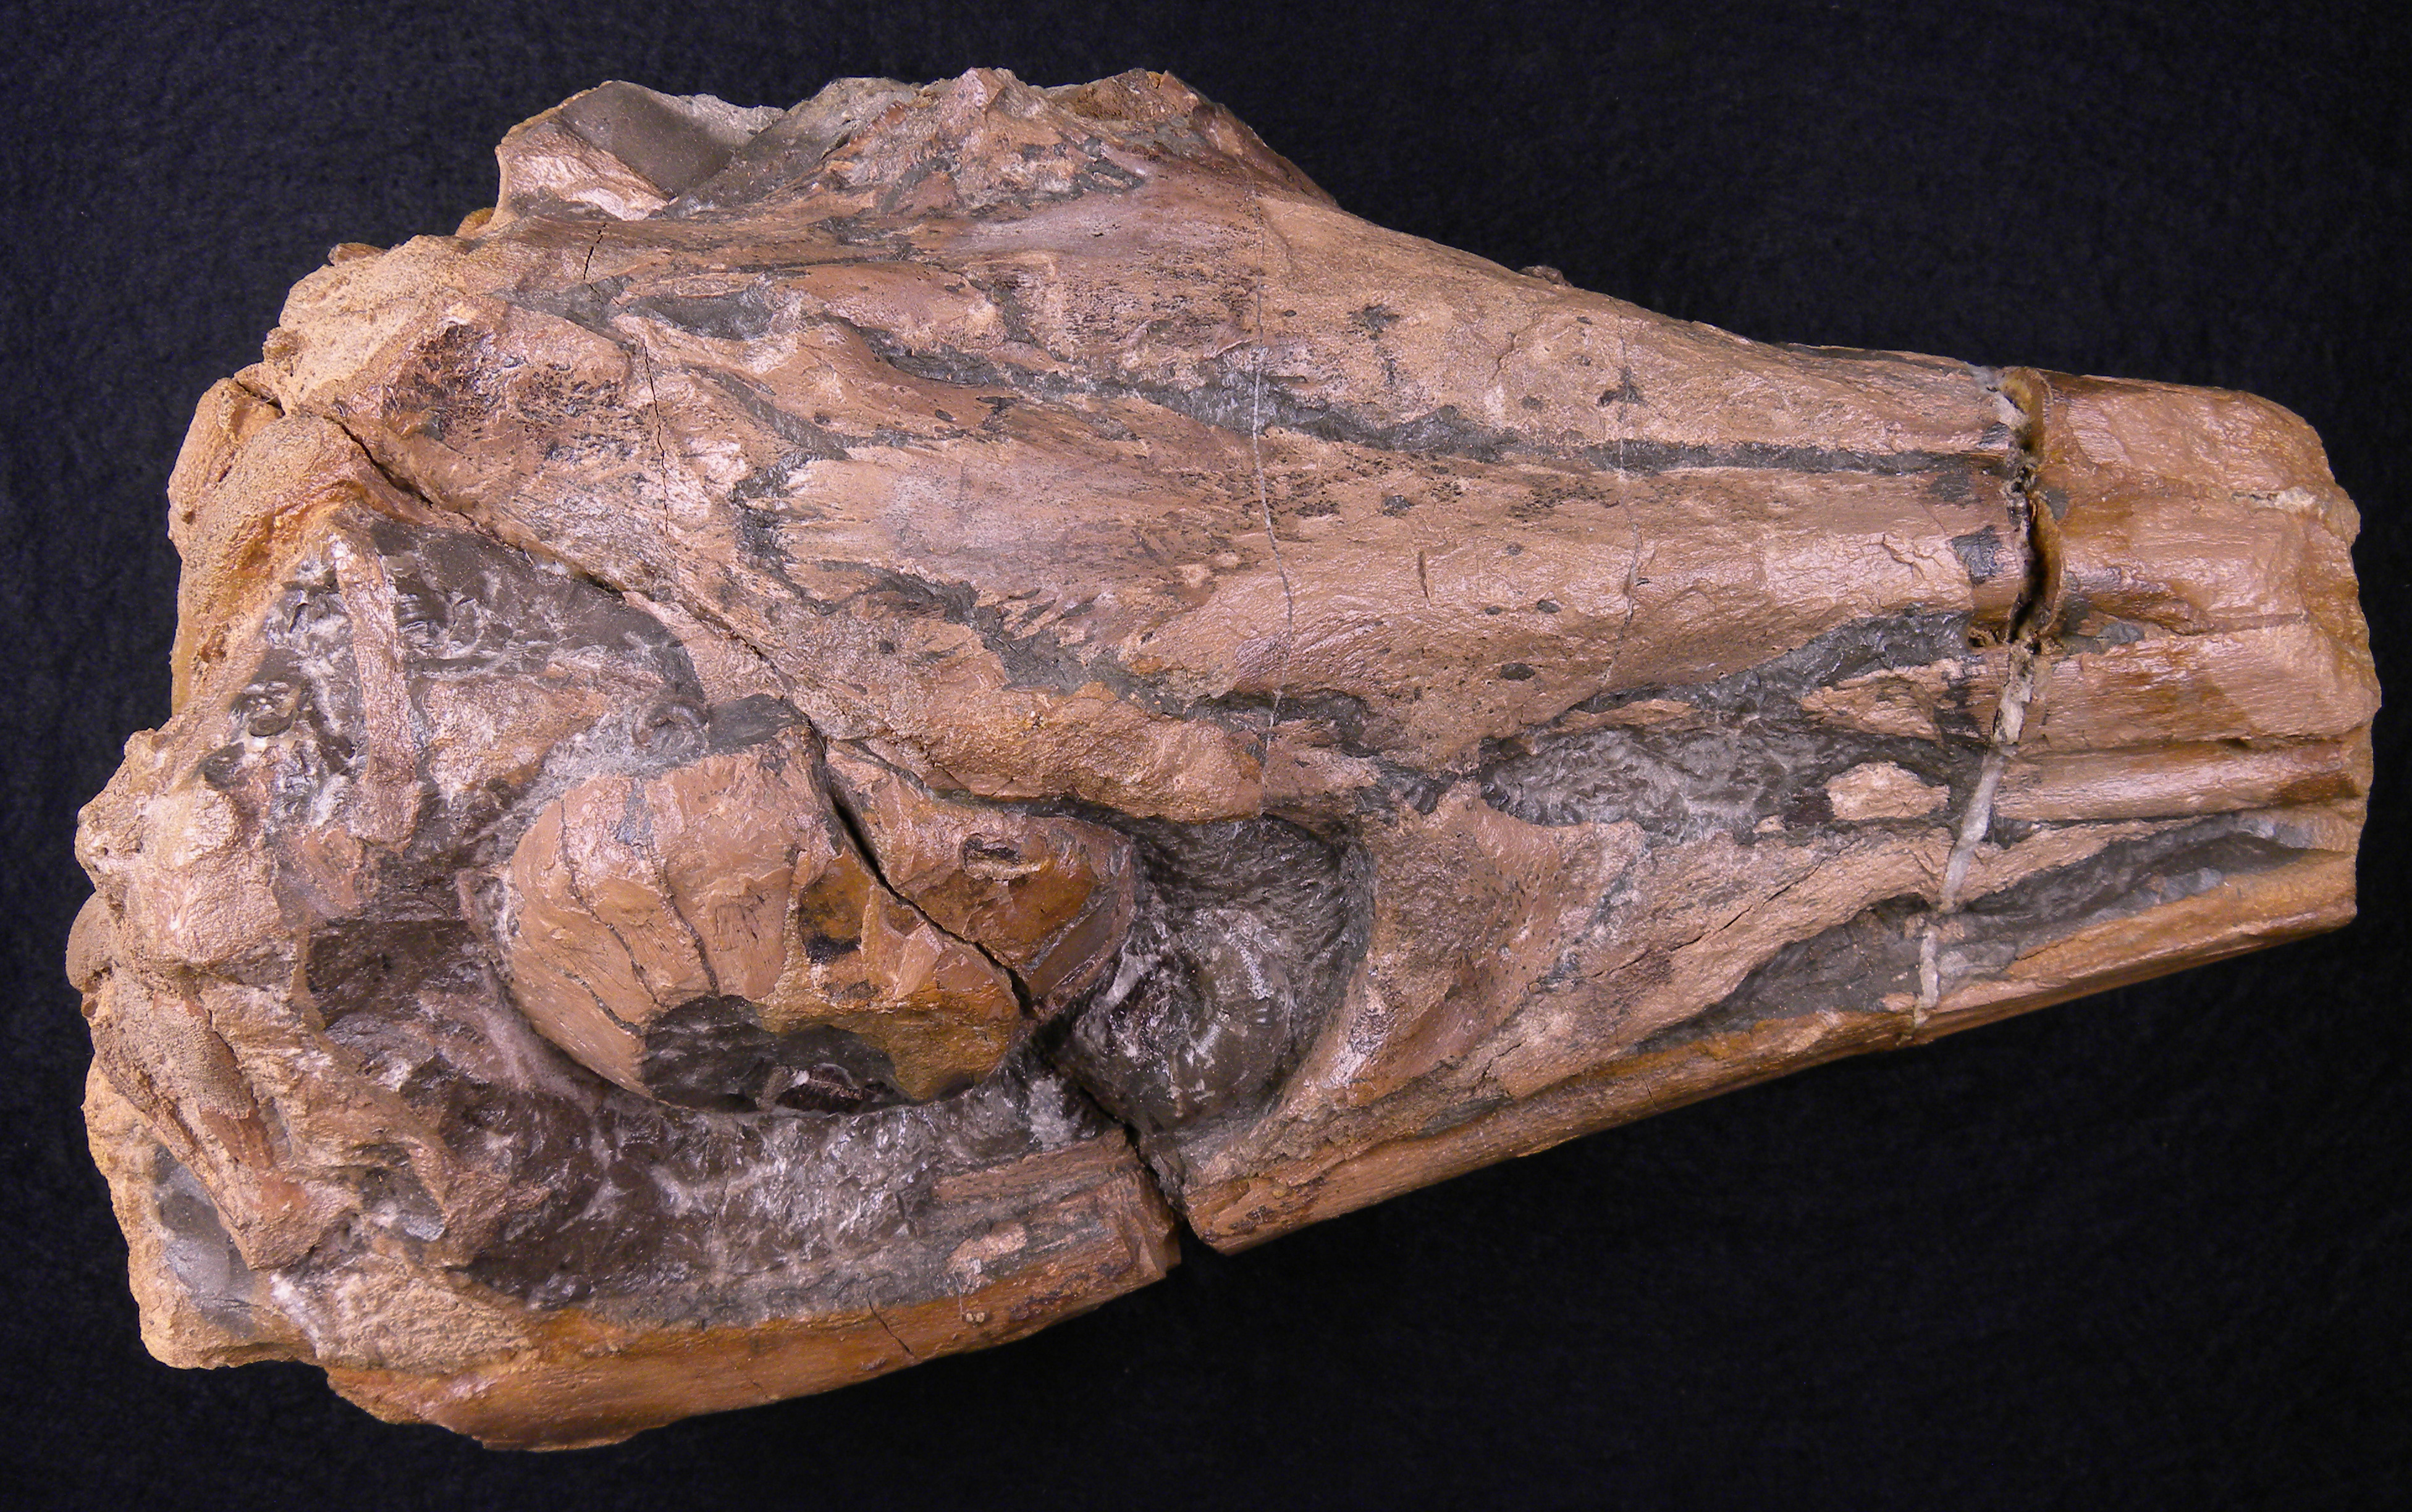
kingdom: Animalia
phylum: Chordata
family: Stenopterygiidae
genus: Stenopterygius
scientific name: Stenopterygius
